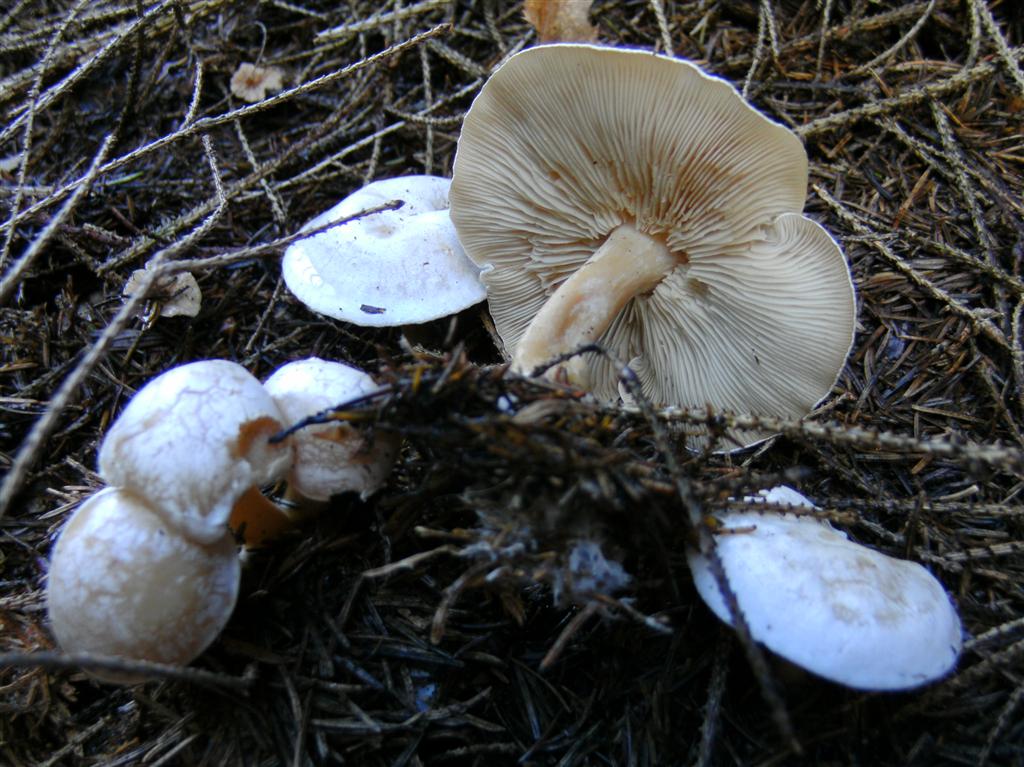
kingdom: Fungi
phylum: Basidiomycota
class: Agaricomycetes
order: Agaricales
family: Tricholomataceae
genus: Clitocybe
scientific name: Clitocybe phyllophila
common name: løv-tragthat
